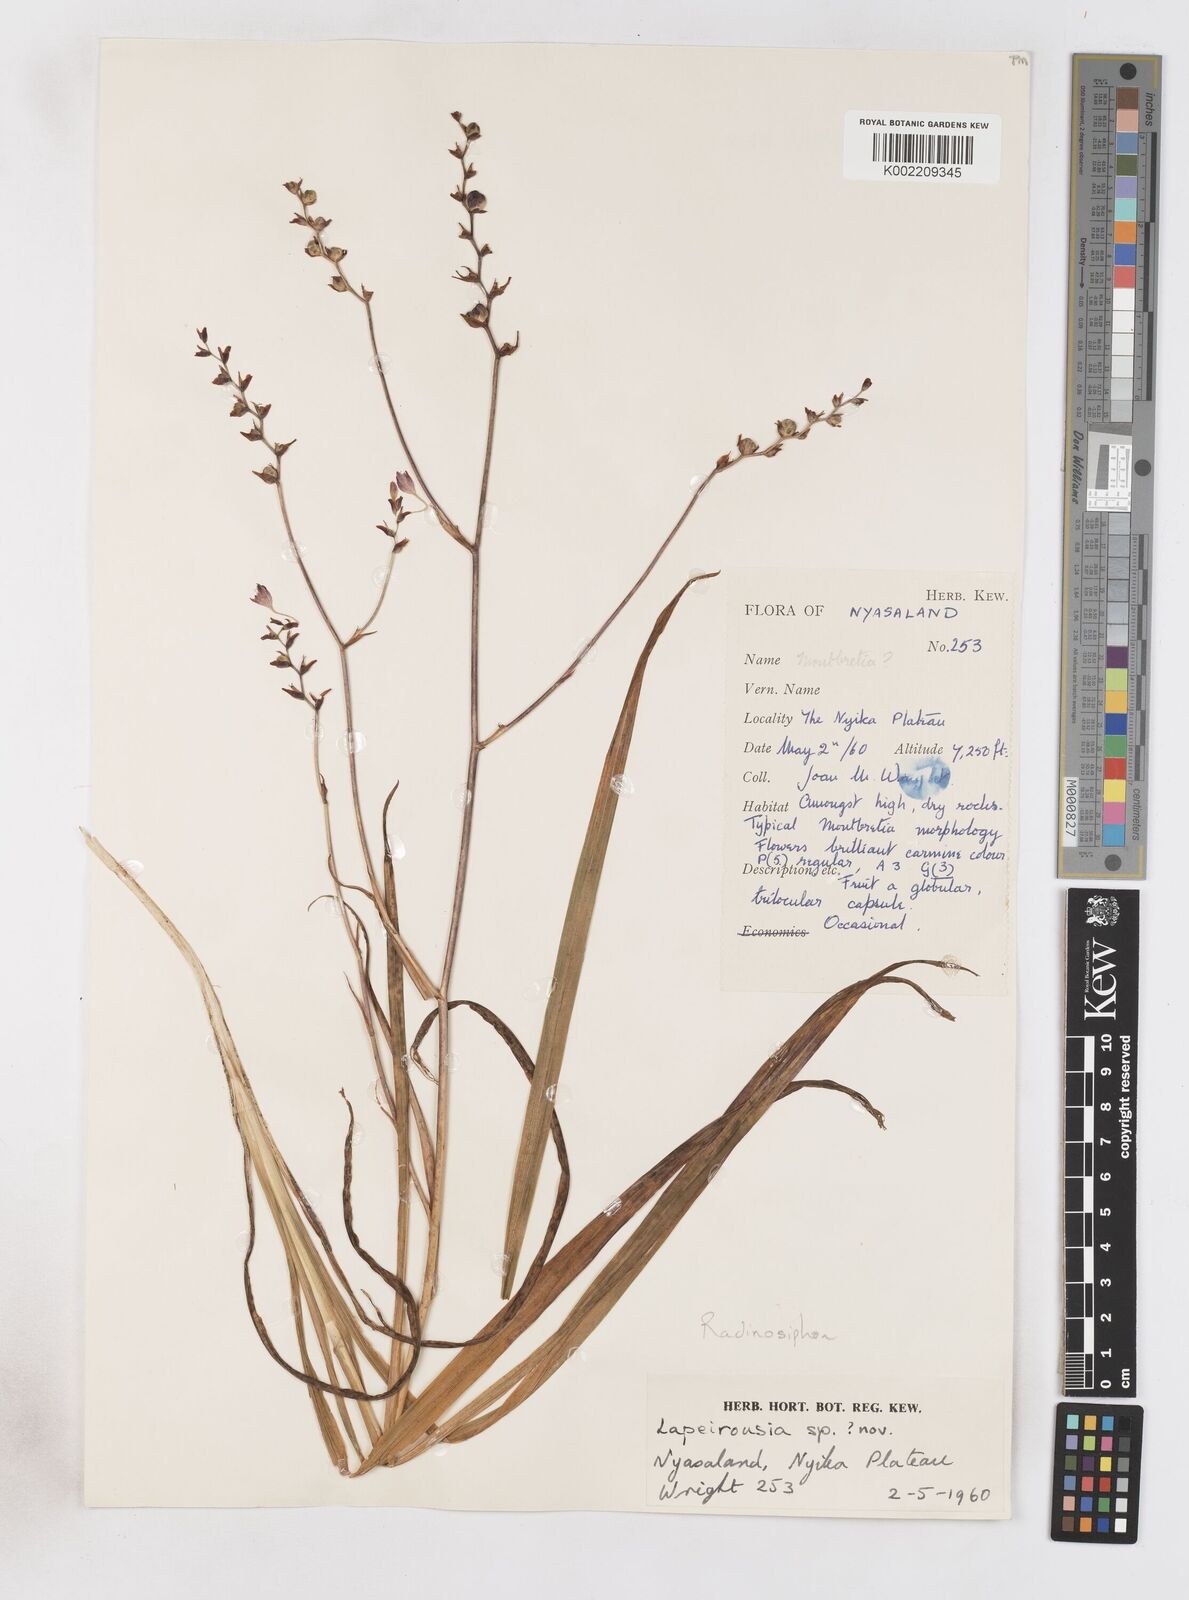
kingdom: Plantae
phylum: Tracheophyta
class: Liliopsida
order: Asparagales
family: Iridaceae
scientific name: Iridaceae
